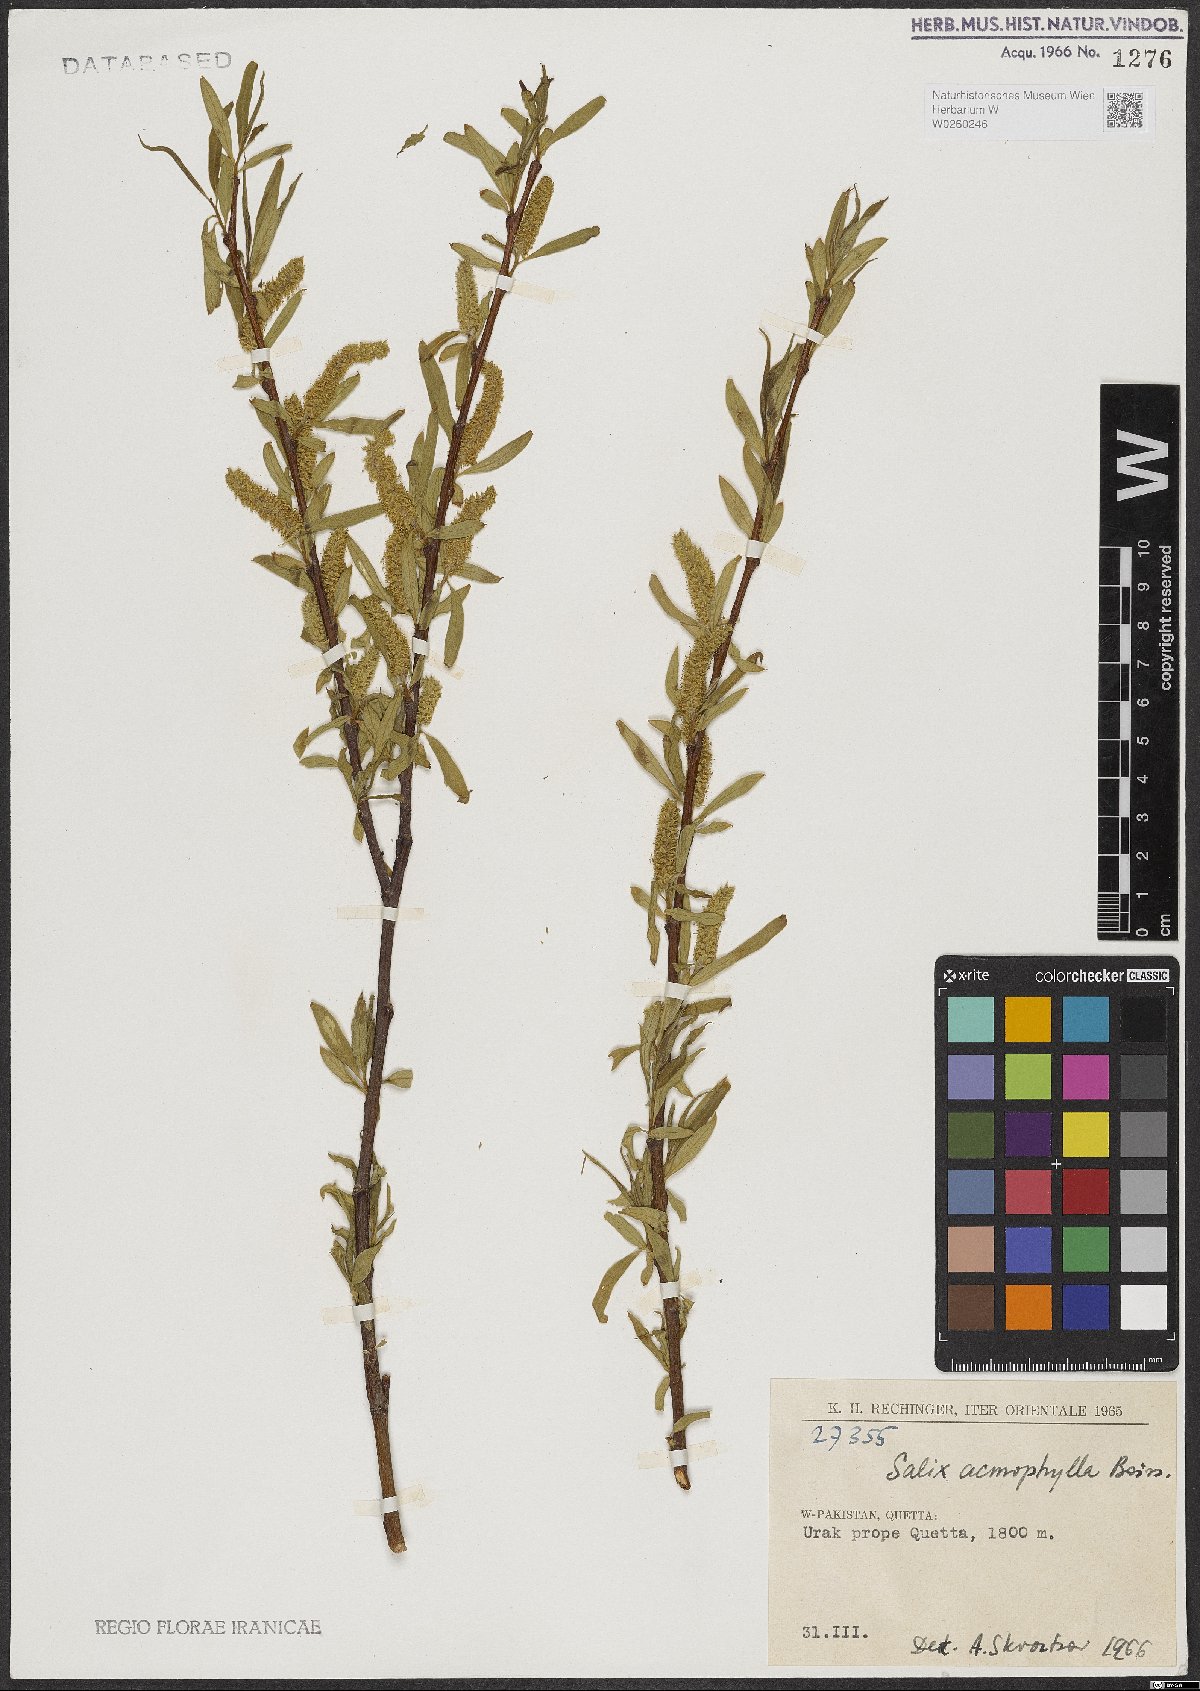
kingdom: Plantae
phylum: Tracheophyta
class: Magnoliopsida
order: Malpighiales
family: Salicaceae
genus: Salix
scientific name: Salix acmophylla
